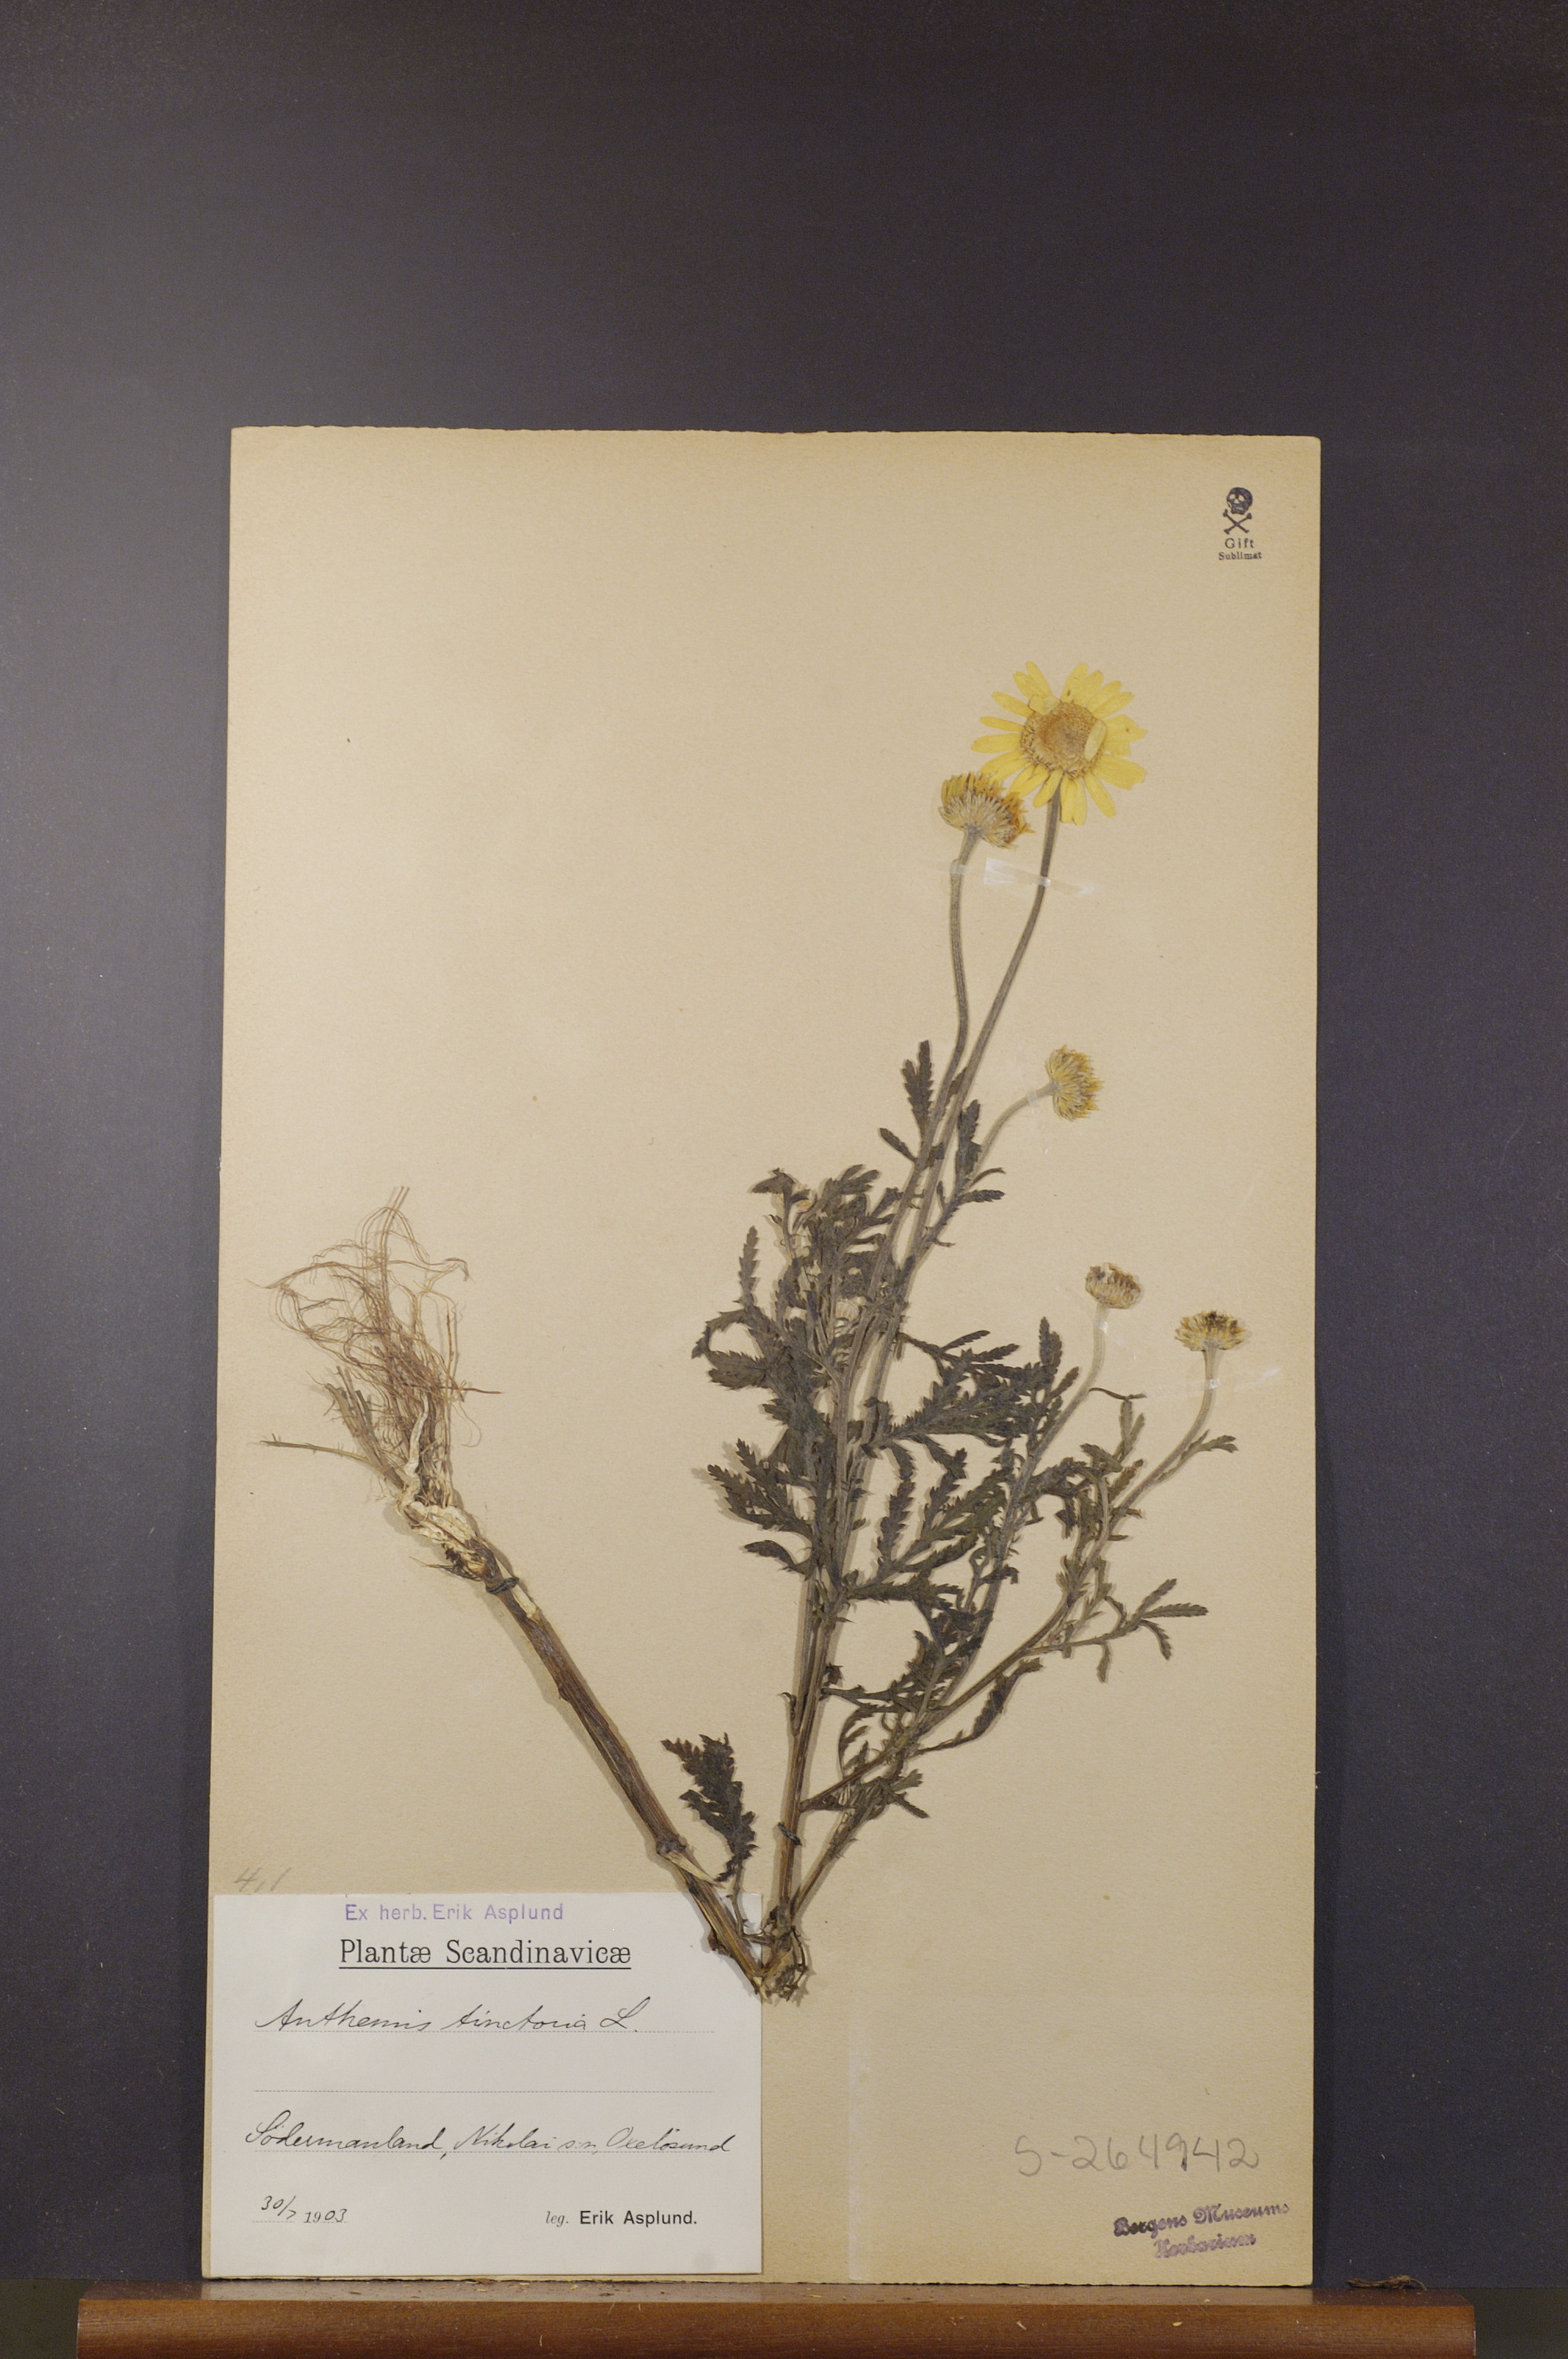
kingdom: Plantae
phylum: Tracheophyta
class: Magnoliopsida
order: Asterales
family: Asteraceae
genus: Cota
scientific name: Cota tinctoria
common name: Golden chamomile
